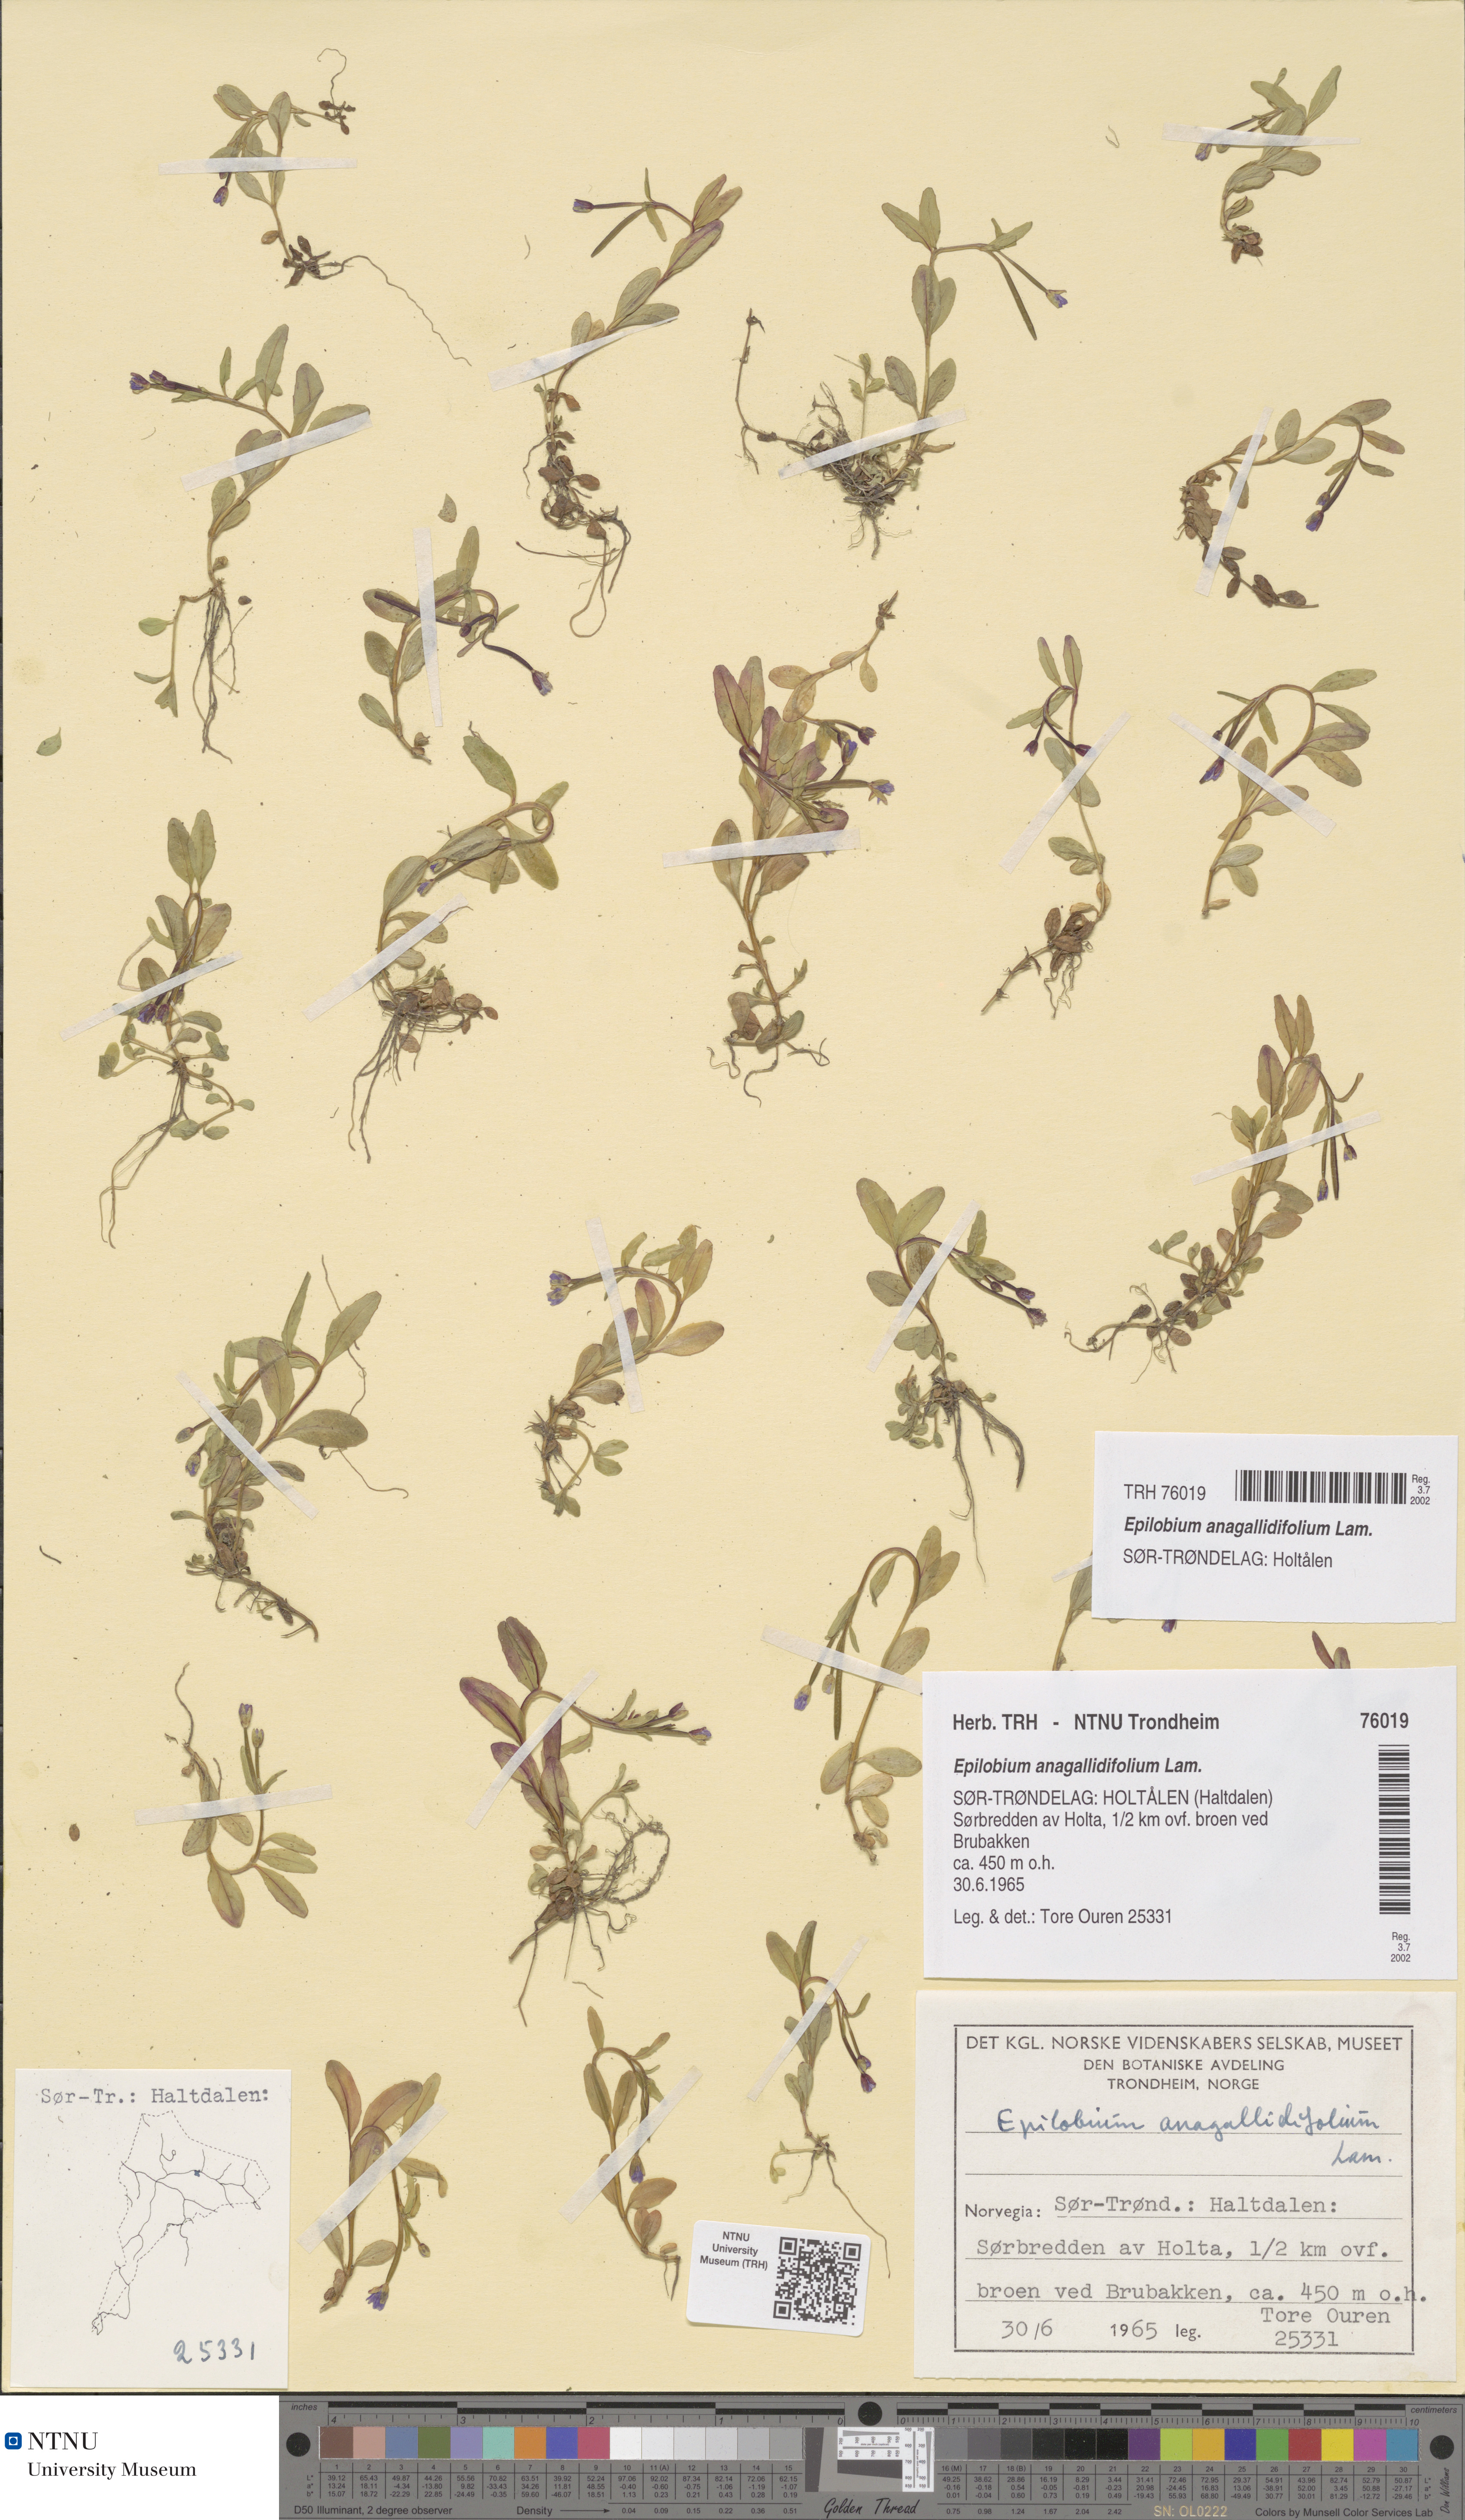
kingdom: Plantae
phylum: Tracheophyta
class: Magnoliopsida
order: Myrtales
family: Onagraceae
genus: Epilobium
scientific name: Epilobium anagallidifolium
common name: Alpine willowherb
